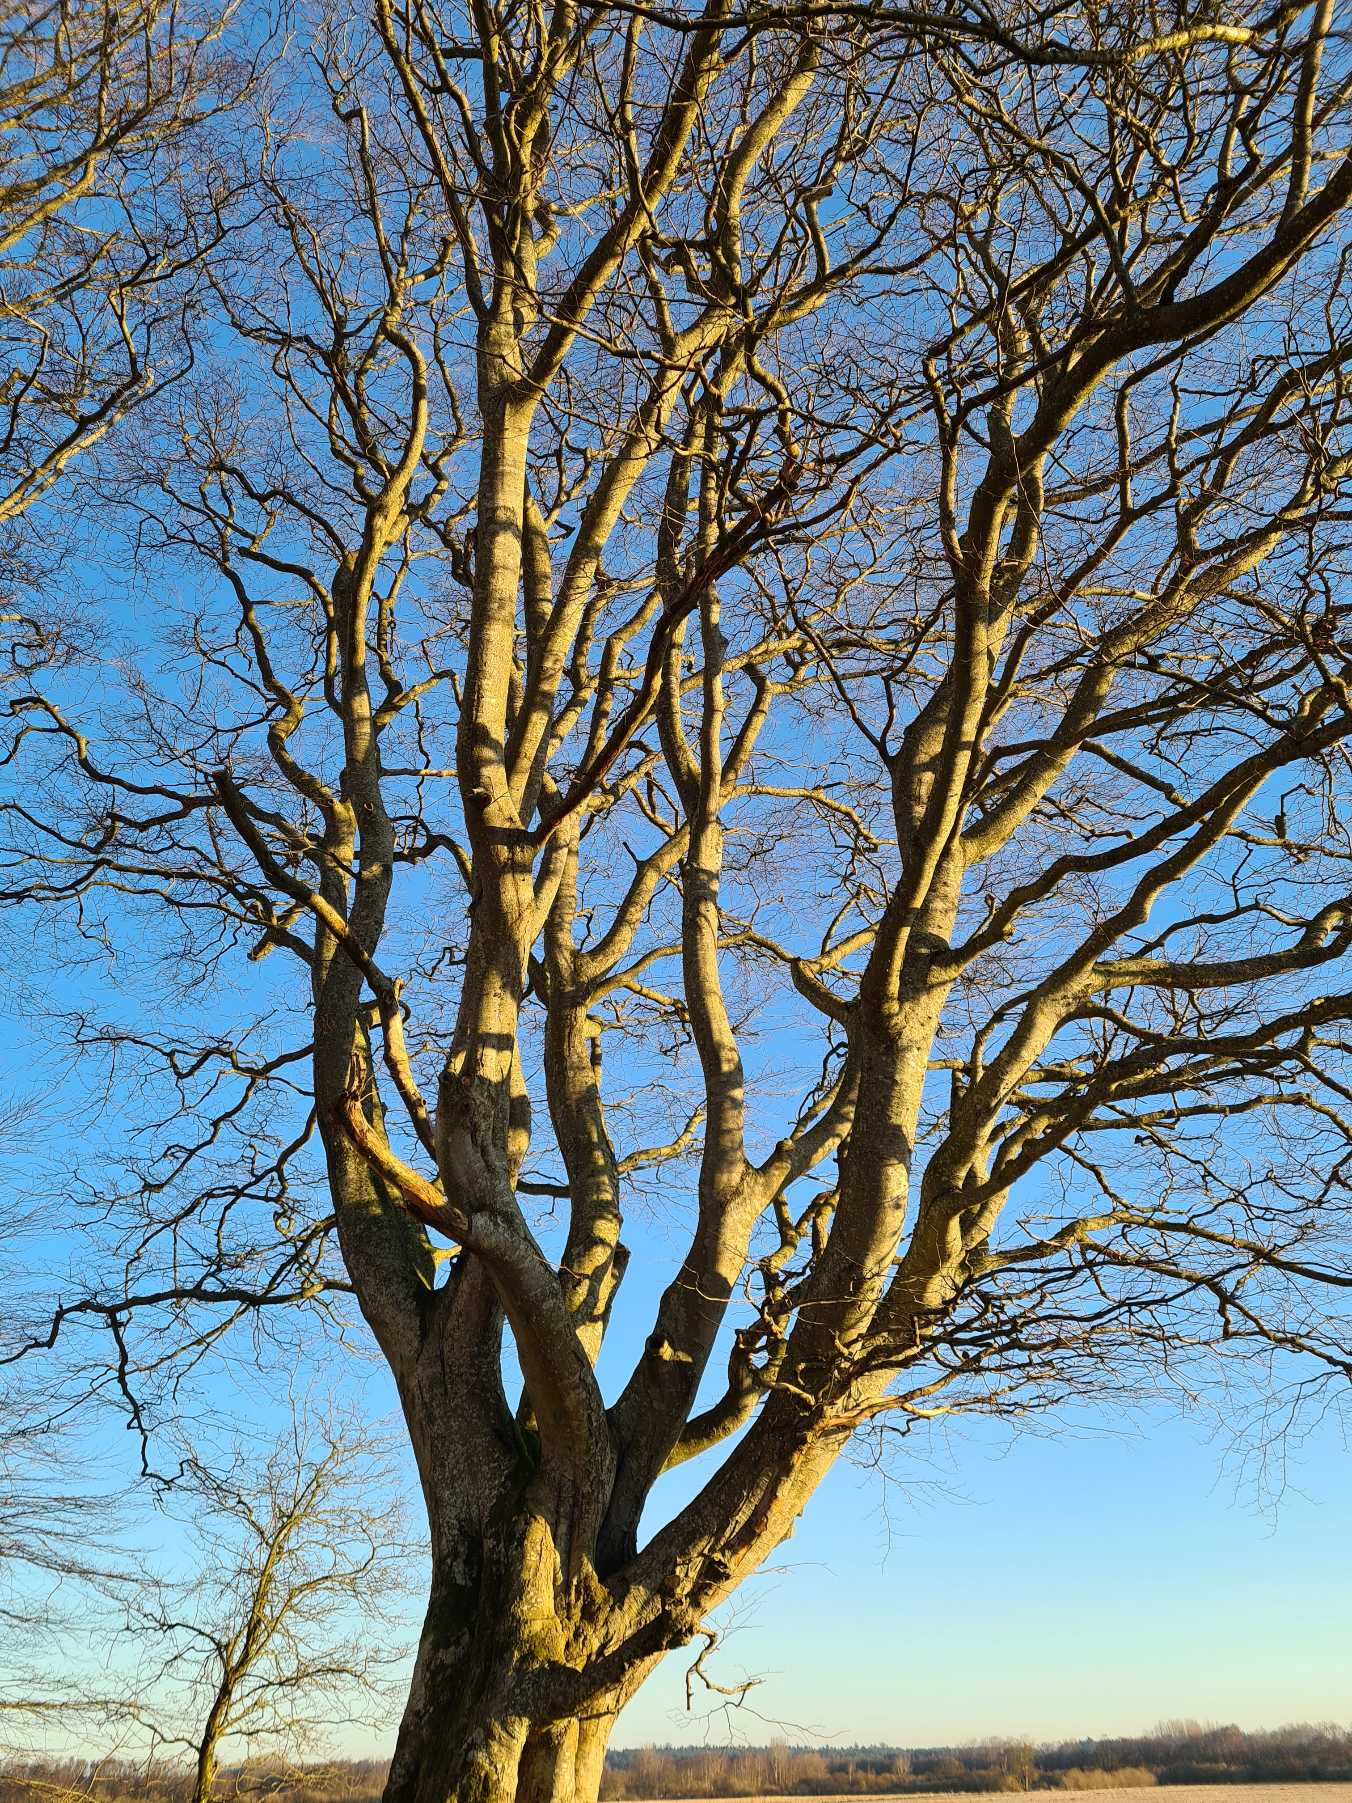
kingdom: Plantae
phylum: Tracheophyta
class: Magnoliopsida
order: Fagales
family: Fagaceae
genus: Fagus
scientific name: Fagus sylvatica
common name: Bøg
